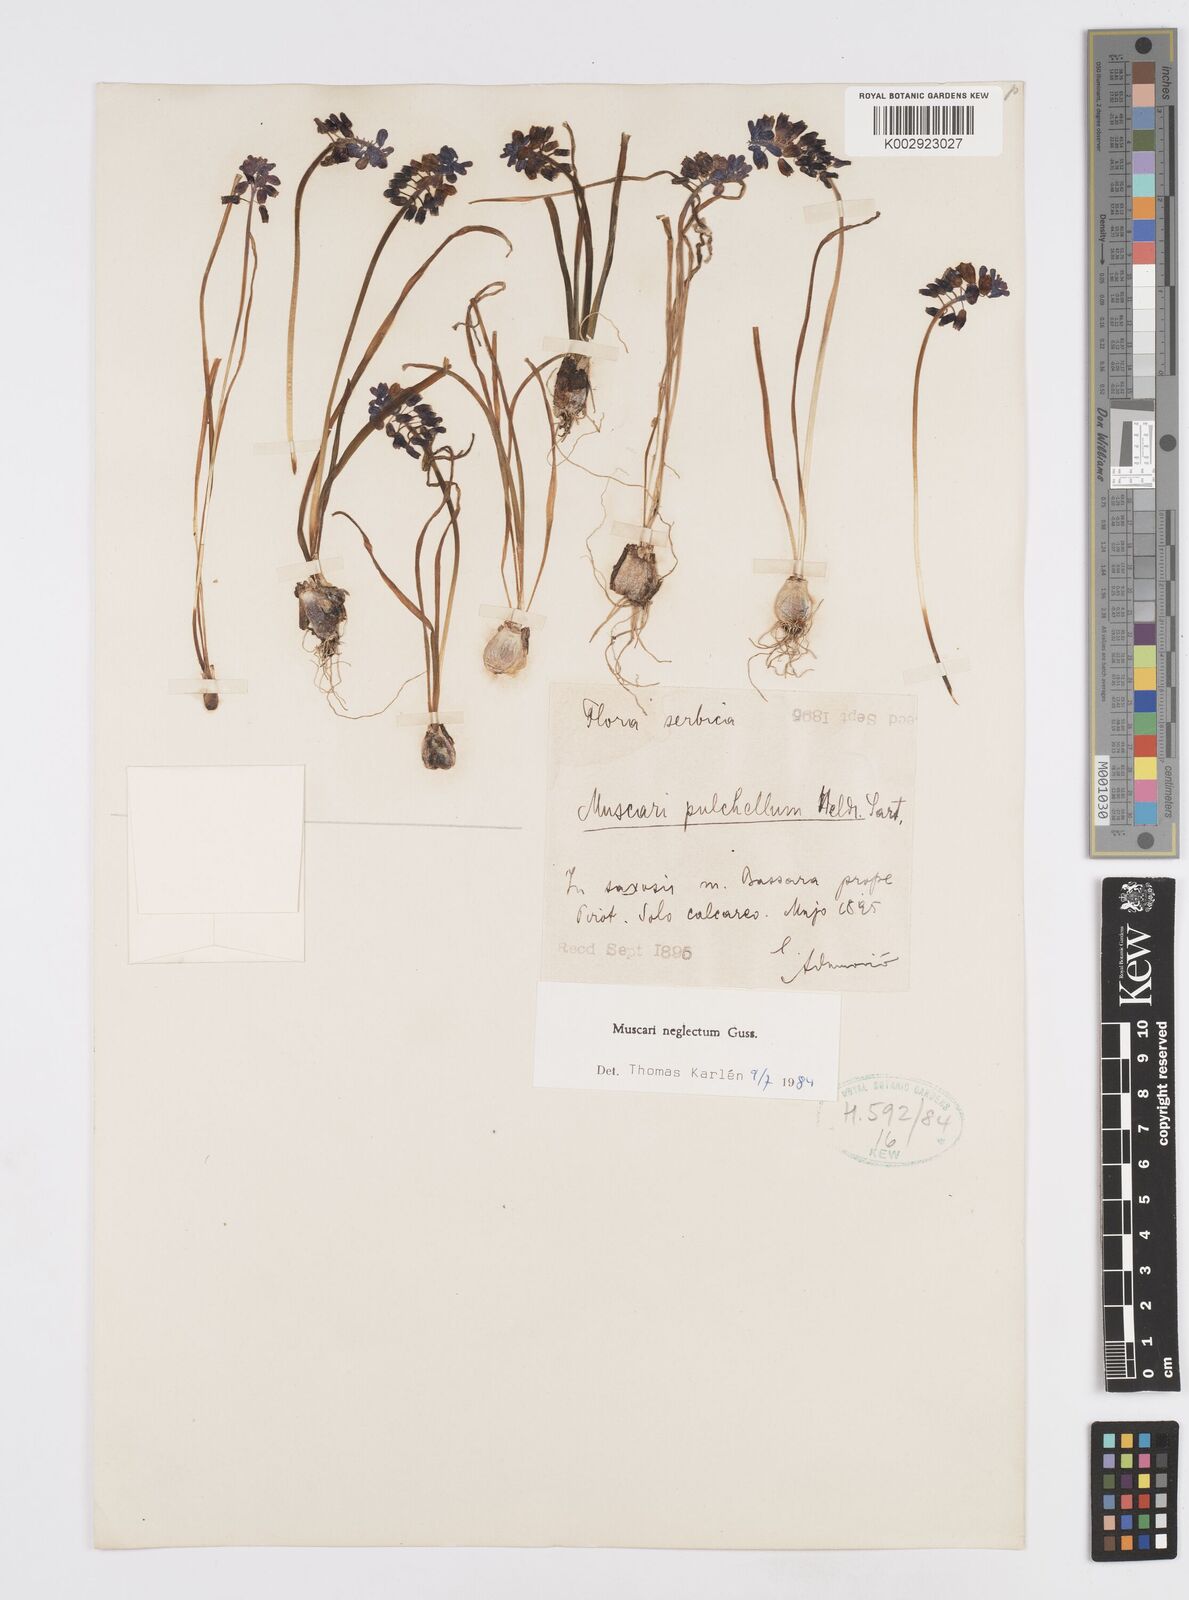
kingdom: Plantae
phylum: Tracheophyta
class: Liliopsida
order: Asparagales
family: Asparagaceae
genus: Muscari
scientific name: Muscari neglectum
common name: Grape-hyacinth
